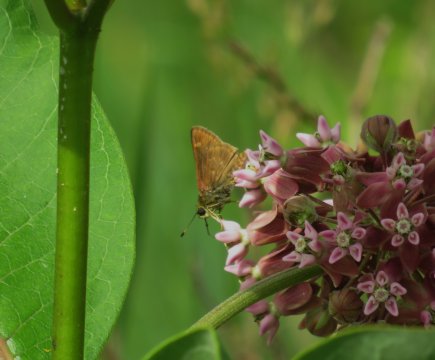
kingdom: Animalia
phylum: Arthropoda
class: Insecta
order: Lepidoptera
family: Hesperiidae
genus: Vernia
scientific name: Vernia verna
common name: Little Glassywing
